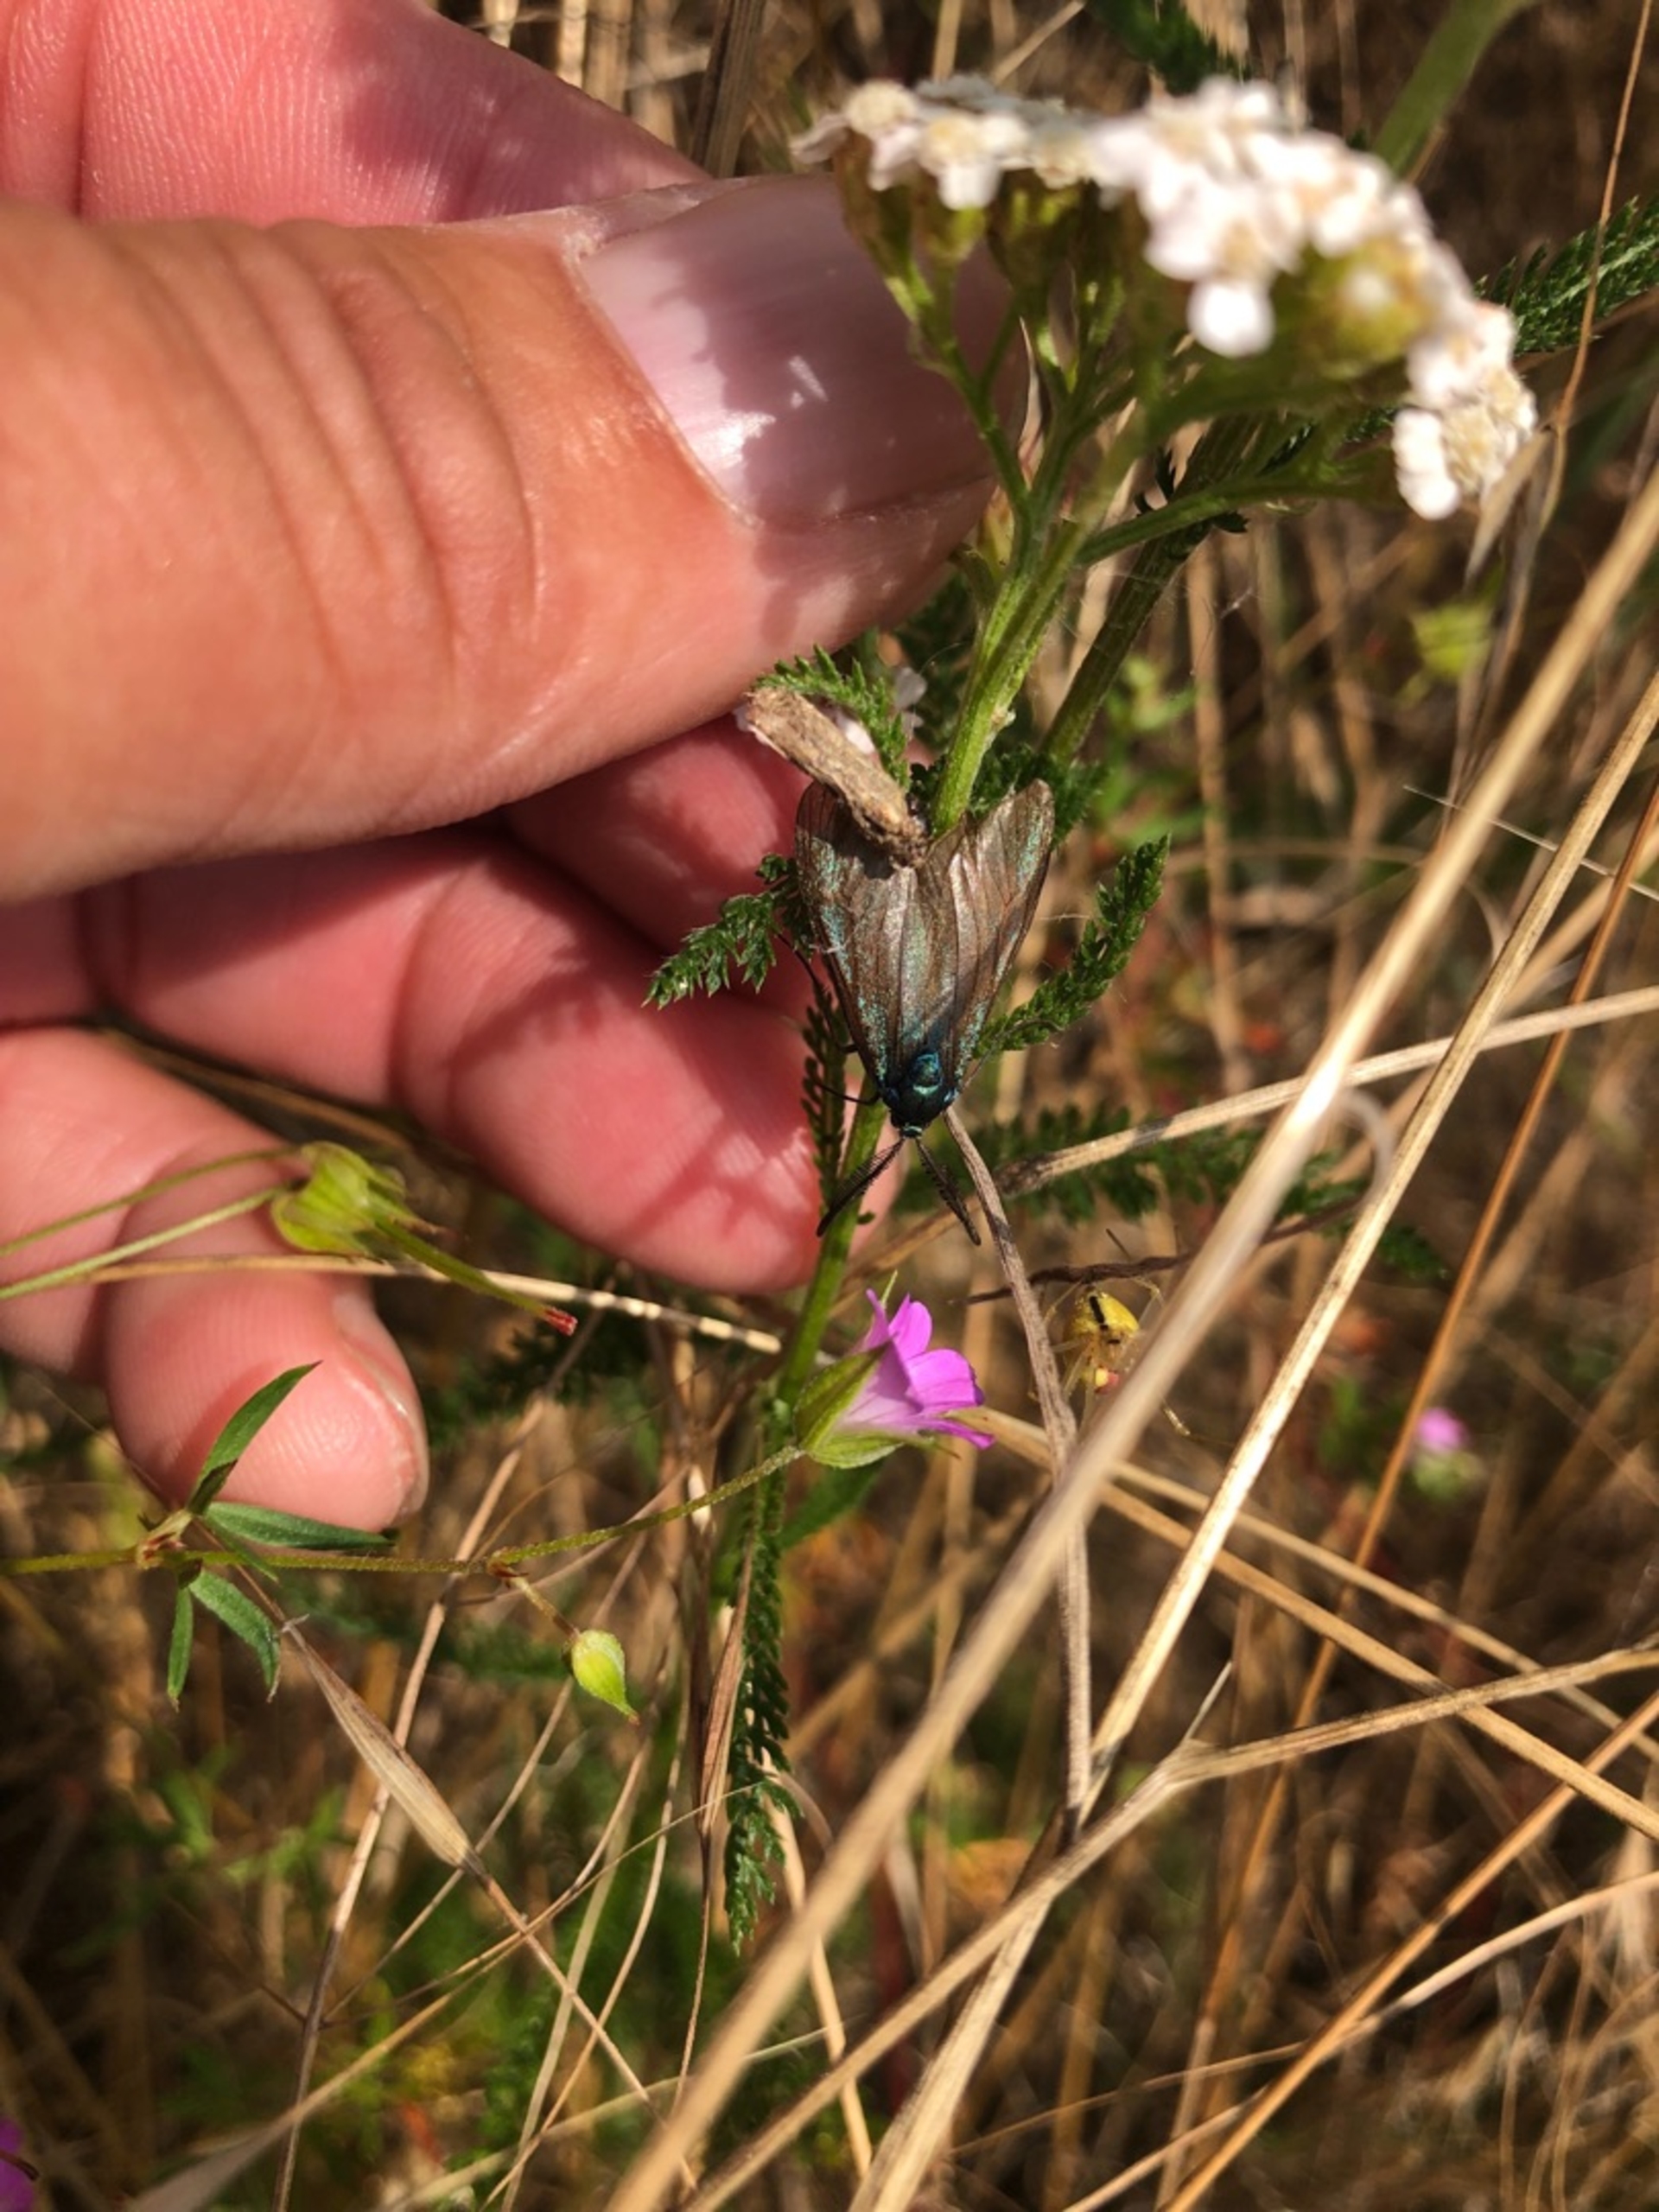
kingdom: Animalia
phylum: Arthropoda
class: Insecta
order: Lepidoptera
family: Zygaenidae
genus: Adscita
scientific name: Adscita statices
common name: Metalvinge
